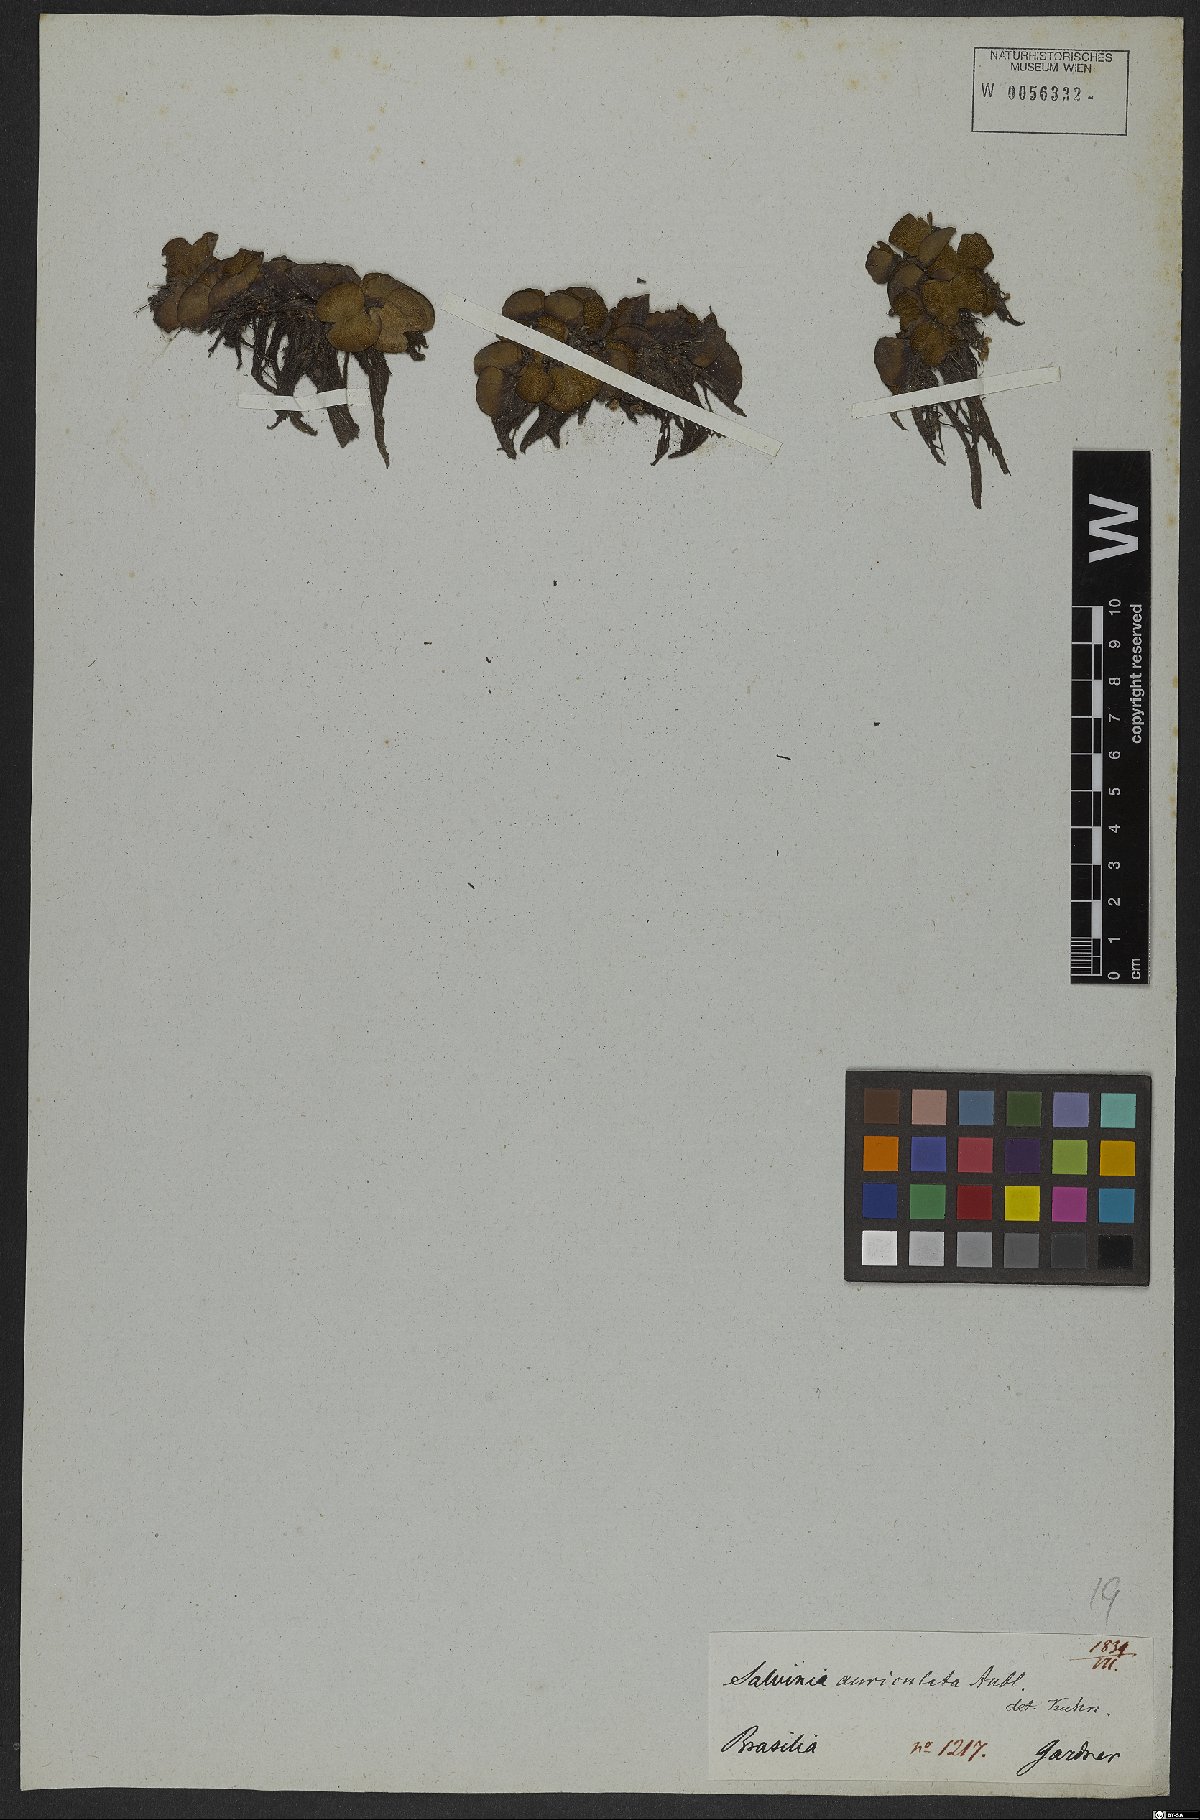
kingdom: Plantae
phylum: Tracheophyta
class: Polypodiopsida
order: Salviniales
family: Salviniaceae
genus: Salvinia
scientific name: Salvinia auriculata
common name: African payal
